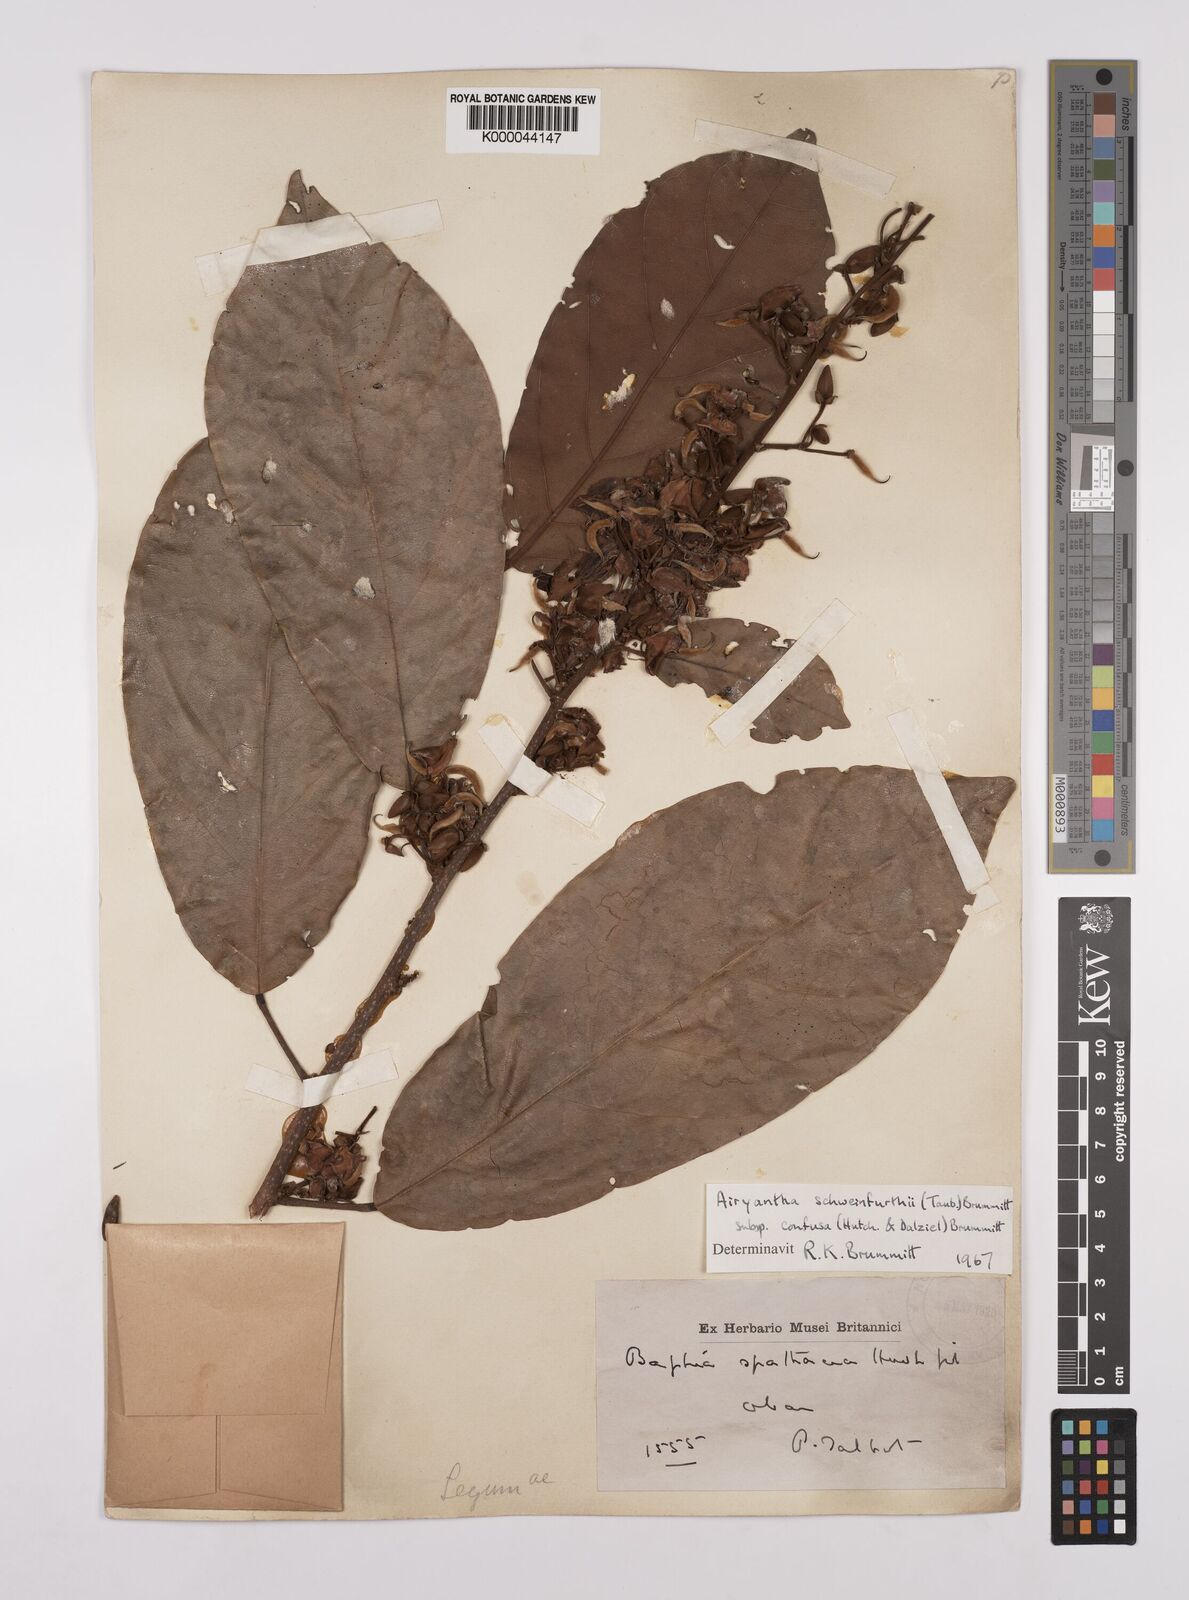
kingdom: Plantae
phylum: Tracheophyta
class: Magnoliopsida
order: Fabales
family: Fabaceae
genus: Airyantha
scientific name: Airyantha schweinfurthii
